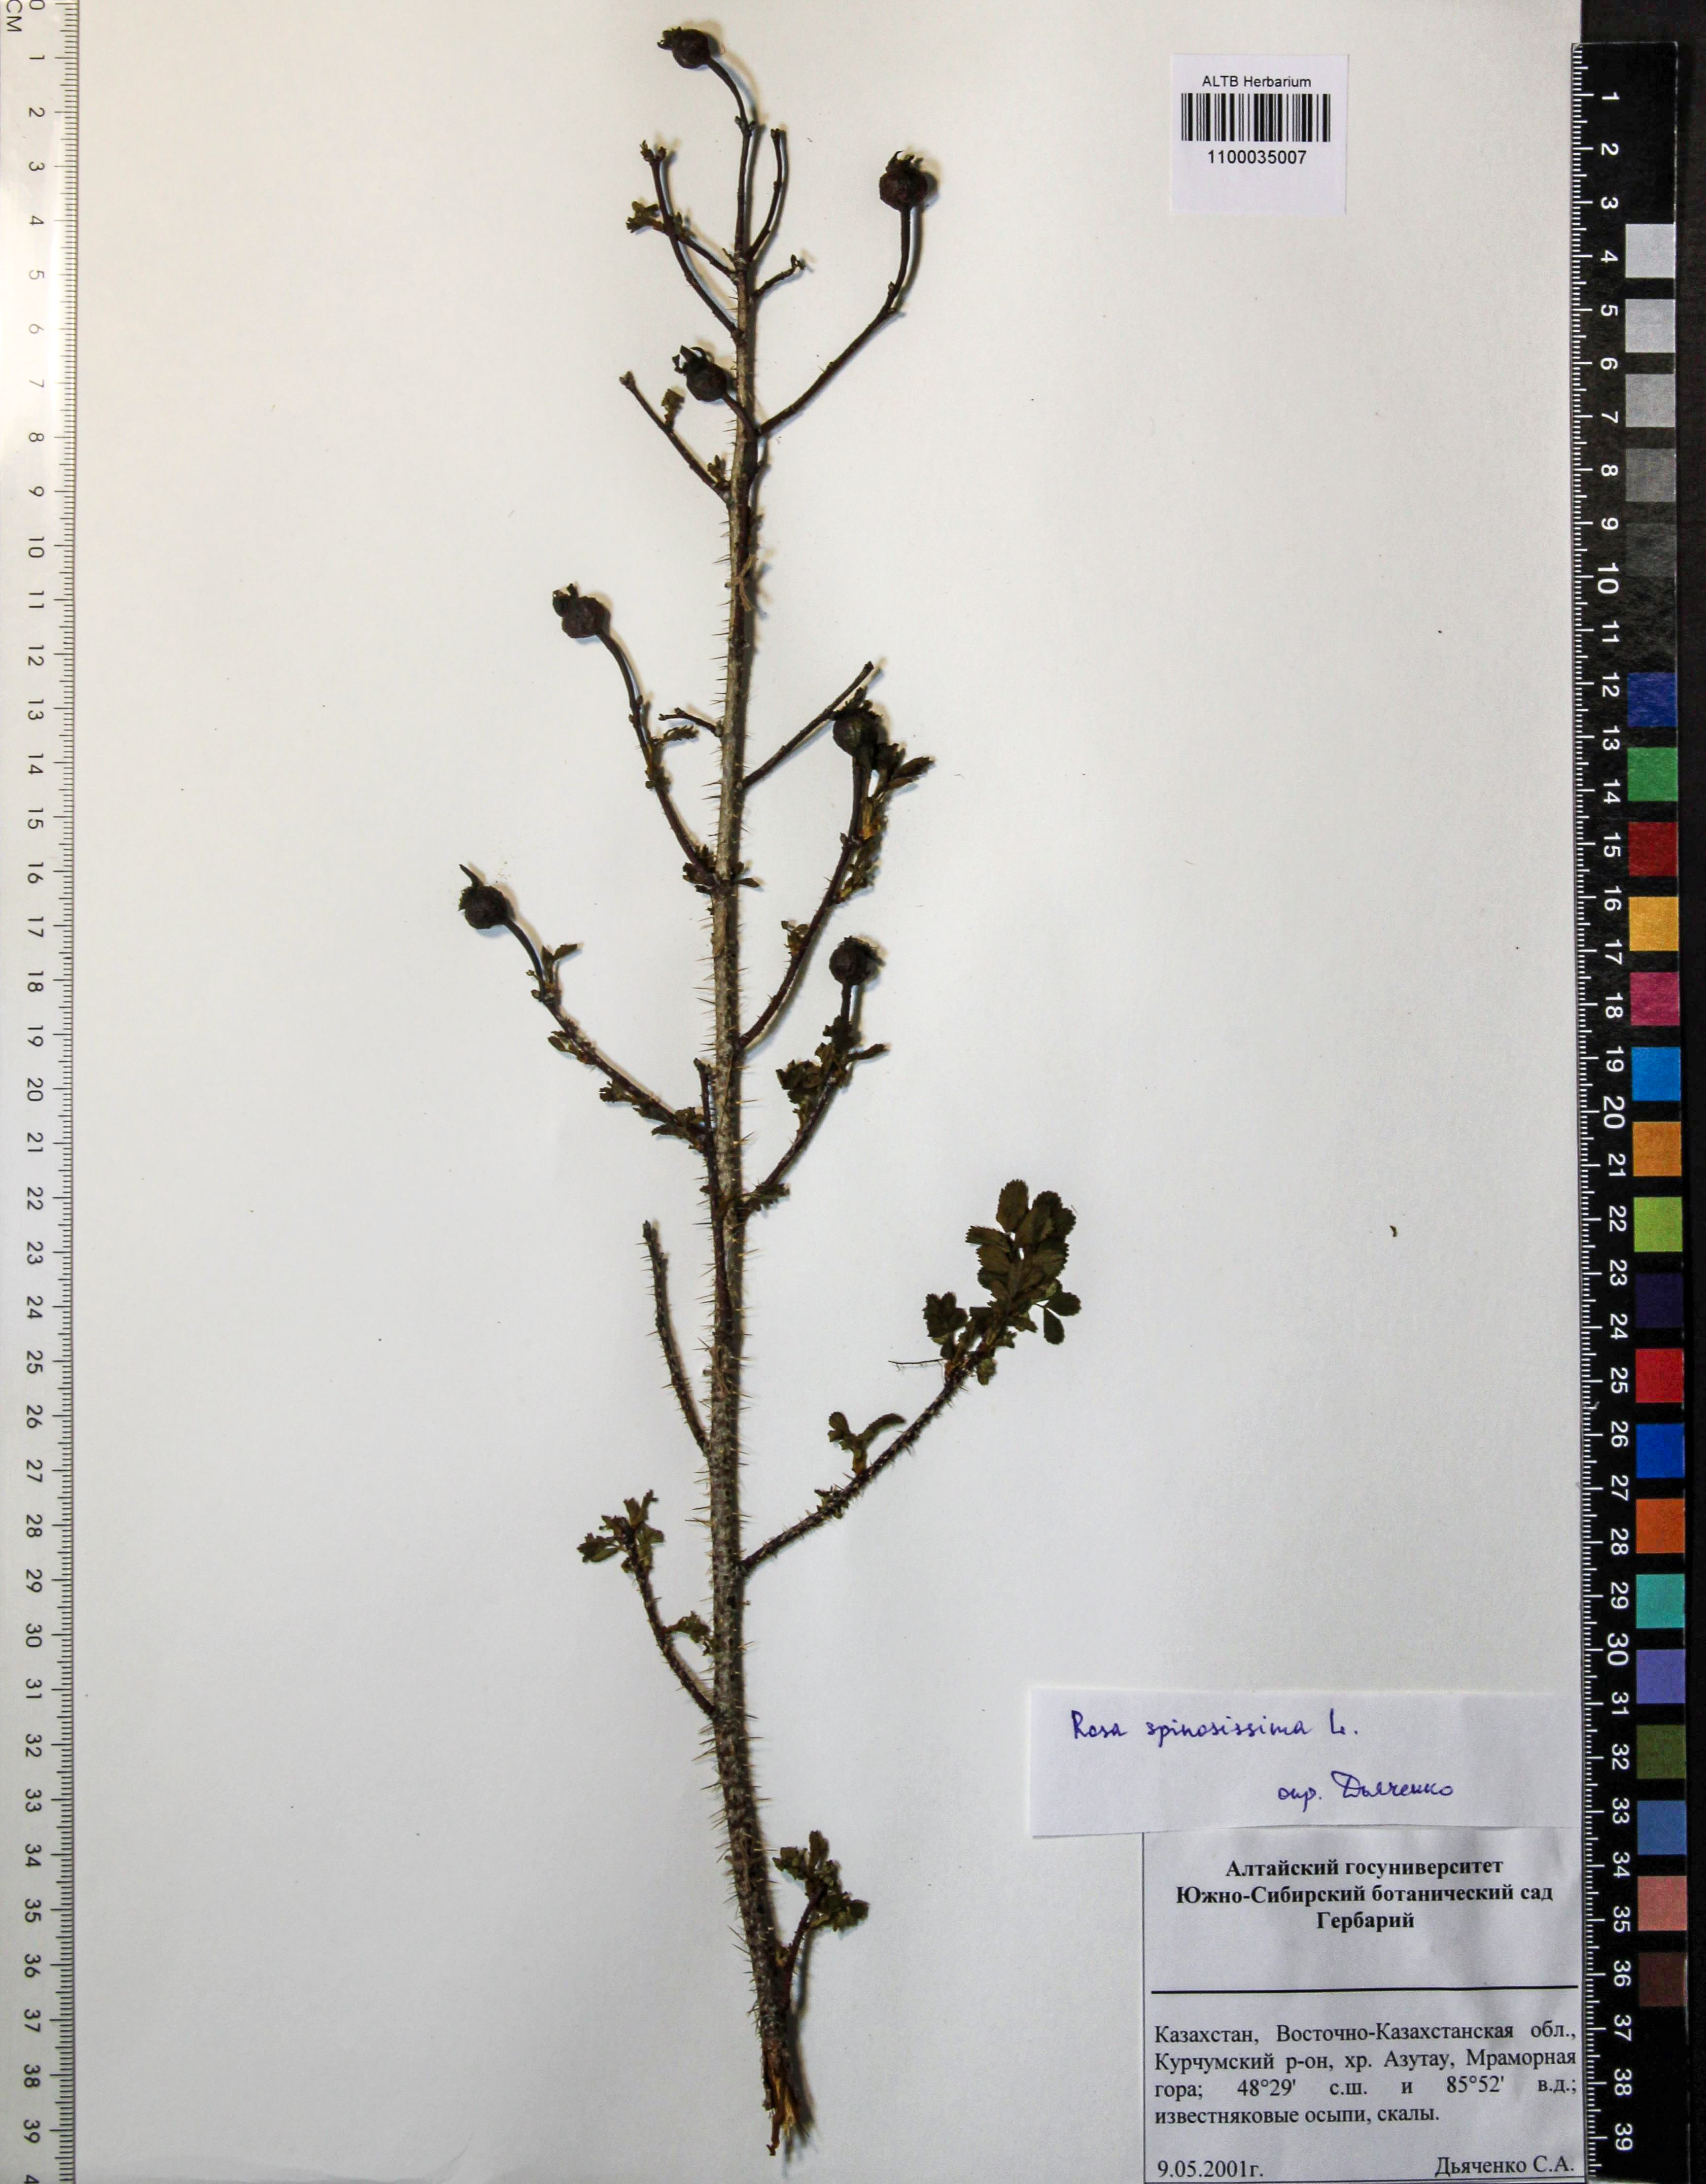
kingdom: Plantae
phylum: Tracheophyta
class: Magnoliopsida
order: Rosales
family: Rosaceae
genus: Rosa
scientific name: Rosa spinosissima
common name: Burnet rose
